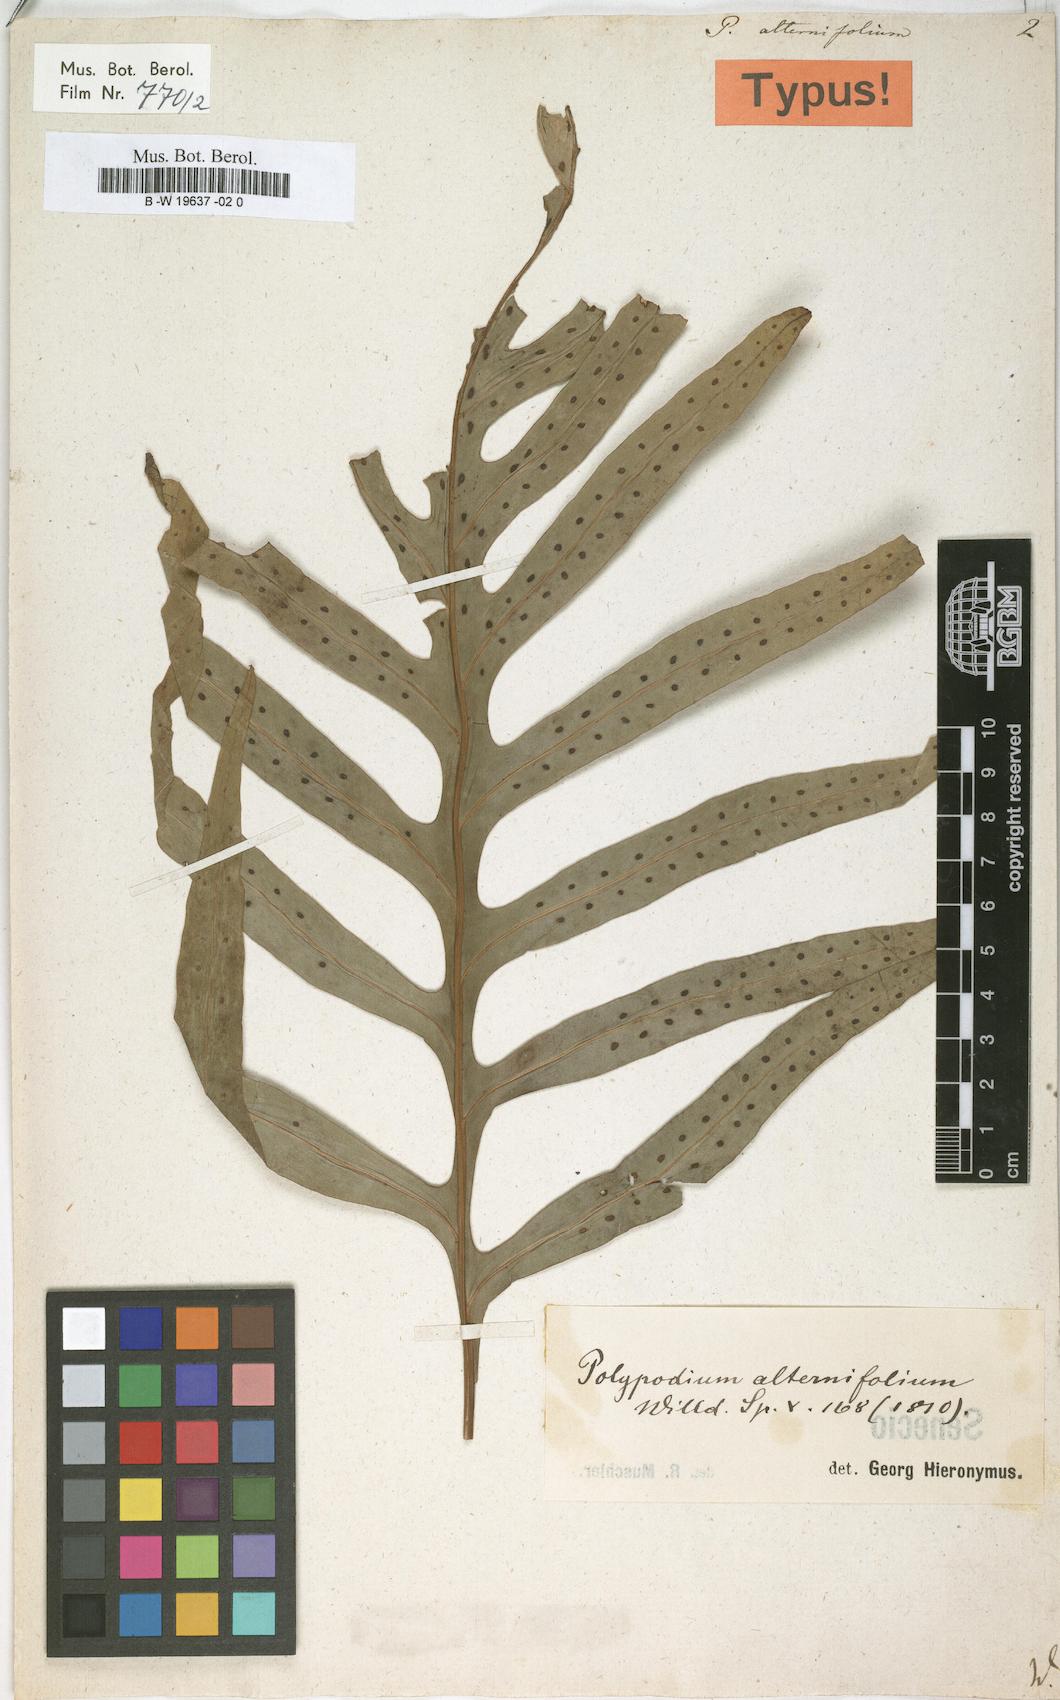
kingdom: Plantae
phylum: Tracheophyta
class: Polypodiopsida
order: Polypodiales
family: Polypodiaceae
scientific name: Polypodiaceae
